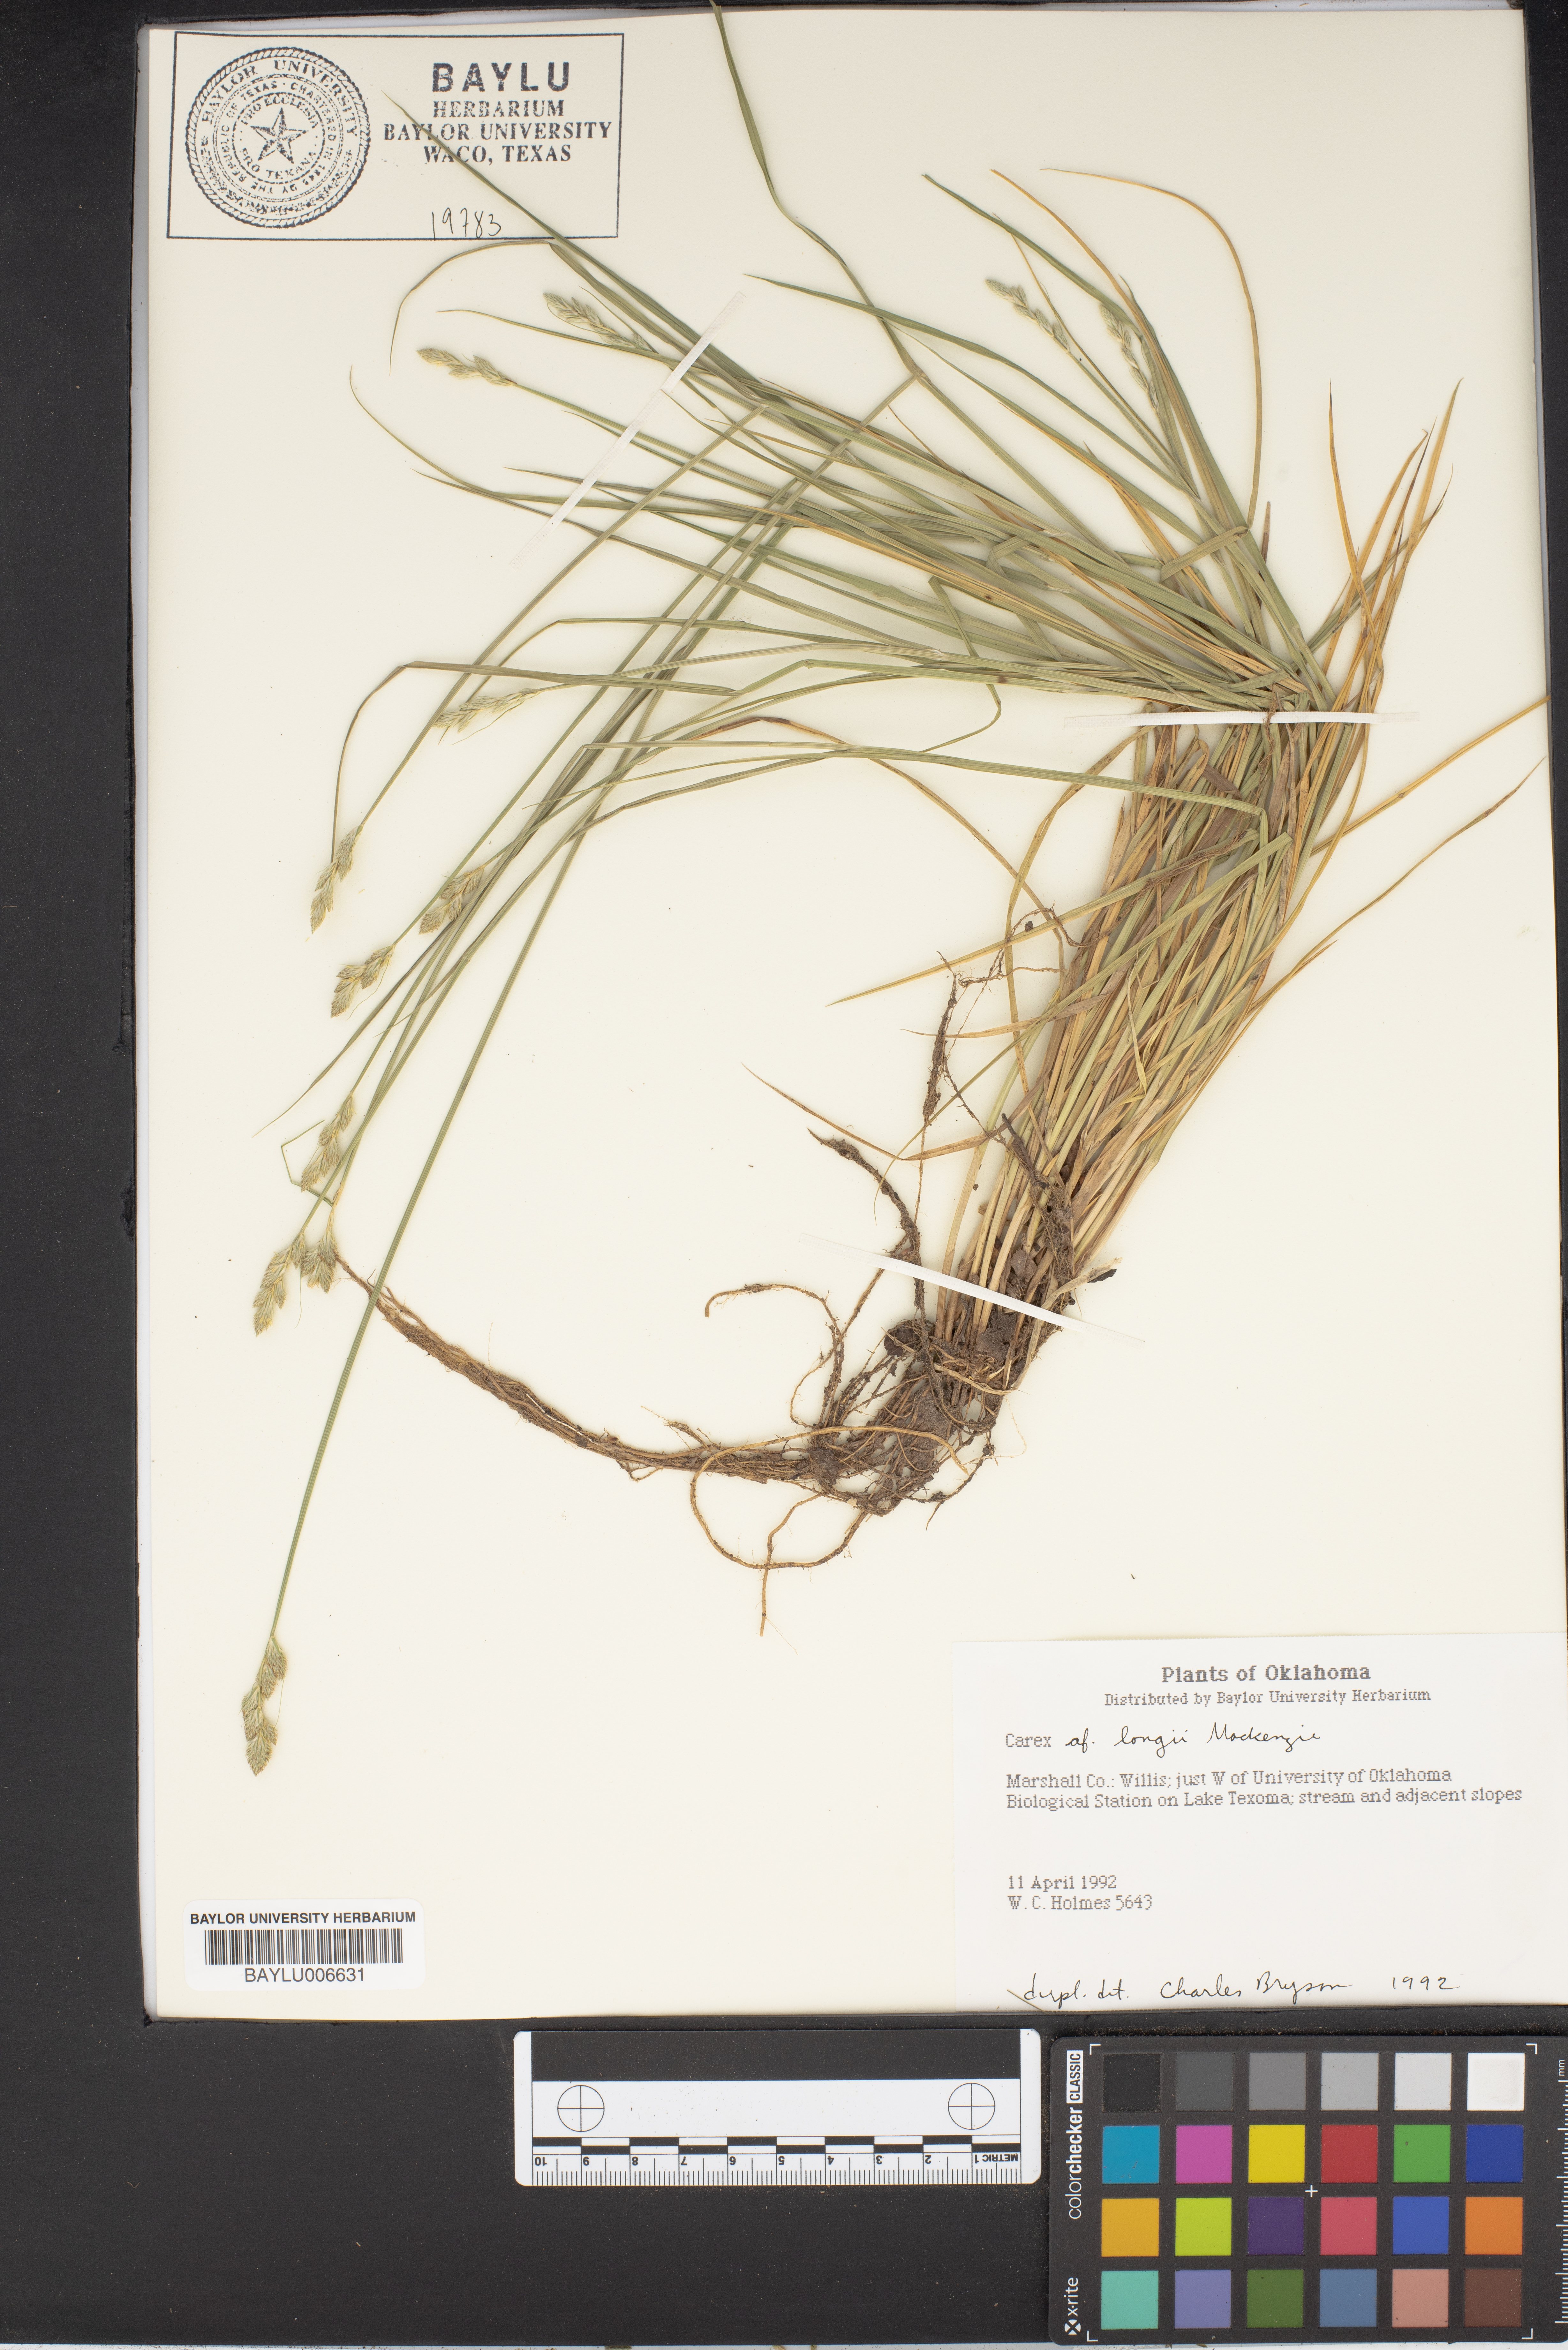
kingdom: Plantae
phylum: Tracheophyta
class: Liliopsida
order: Poales
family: Cyperaceae
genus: Carex
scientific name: Carex longii
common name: Long's sedge
